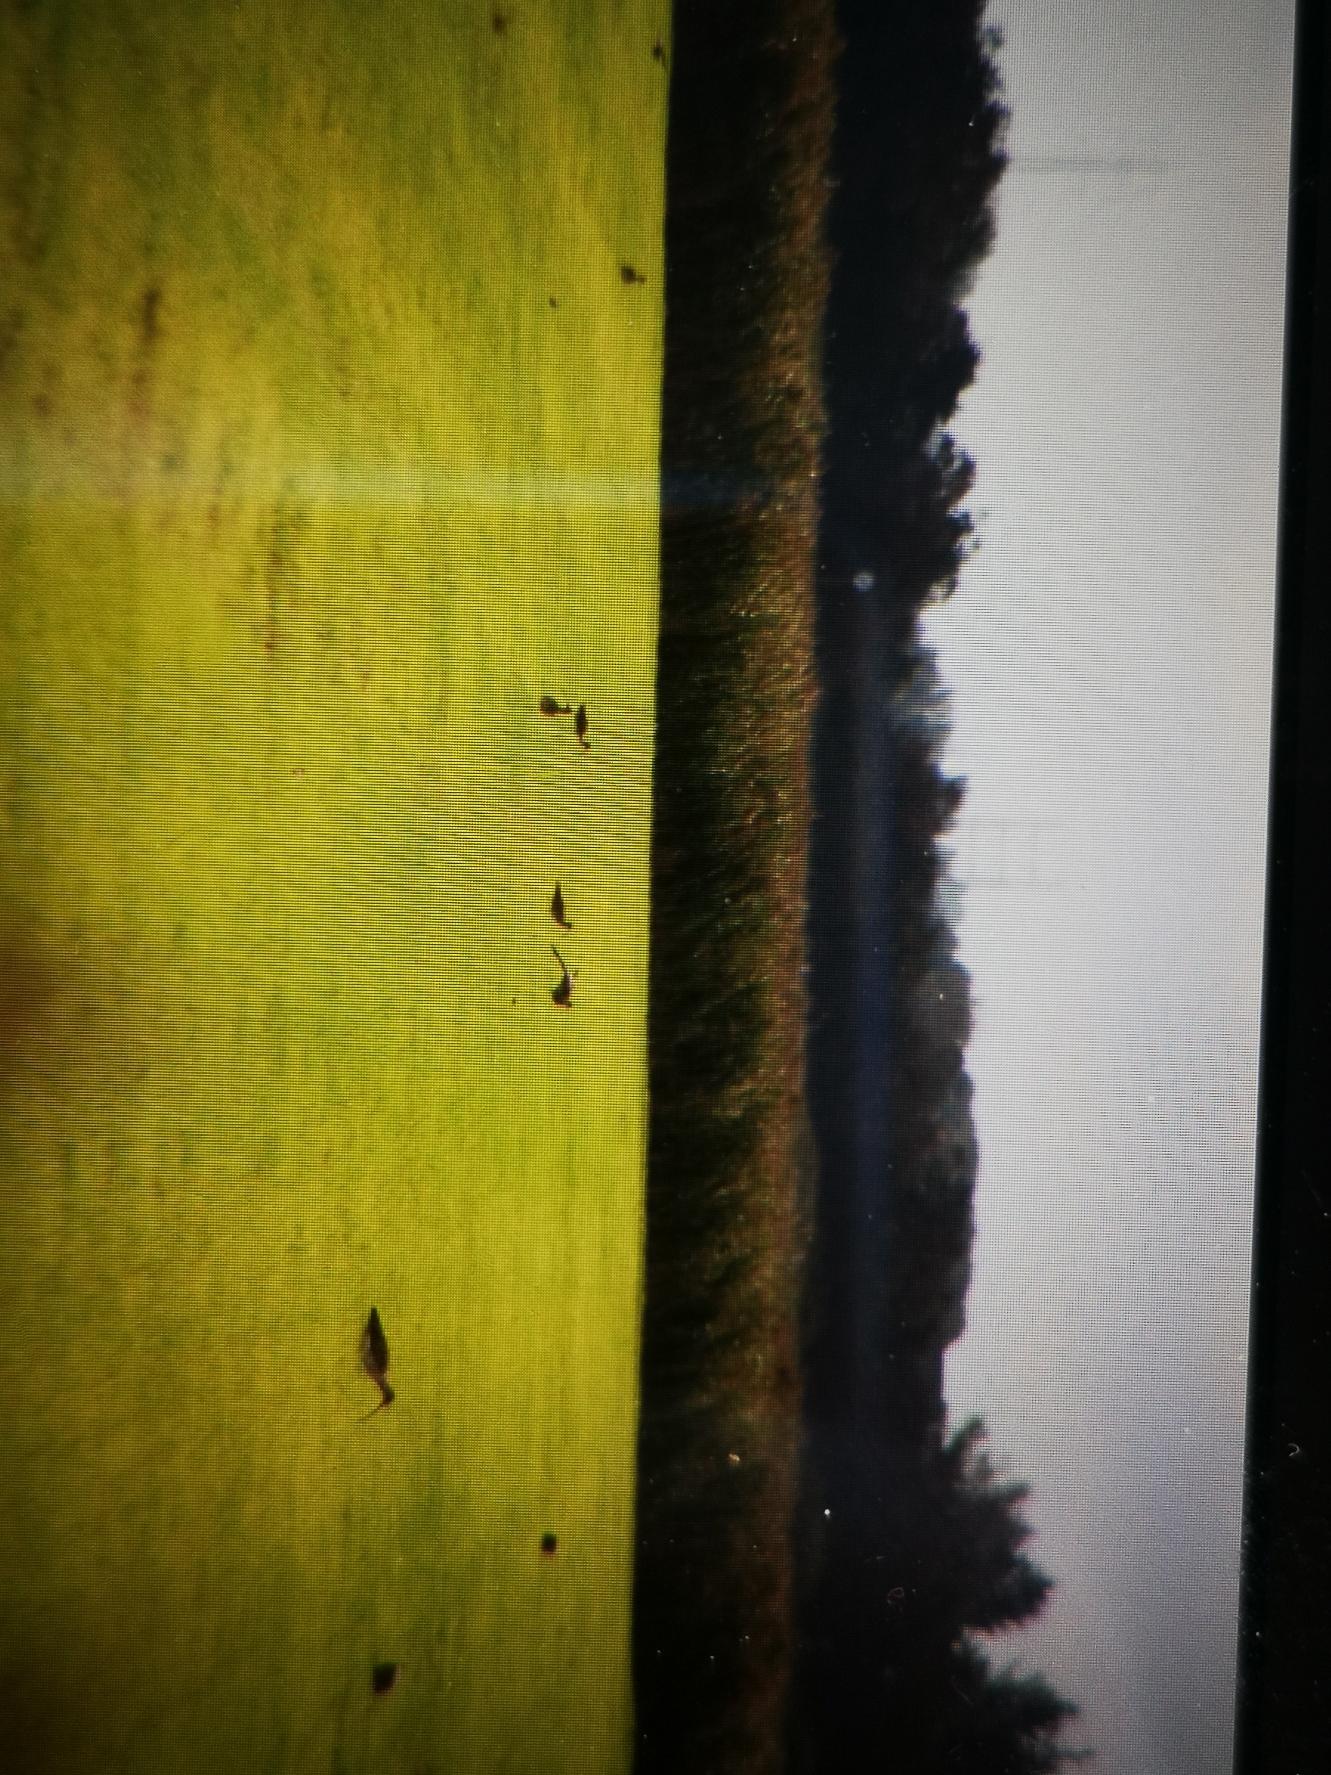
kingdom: Animalia
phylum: Chordata
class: Aves
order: Charadriiformes
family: Scolopacidae
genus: Numenius
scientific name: Numenius arquata
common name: Storspove
